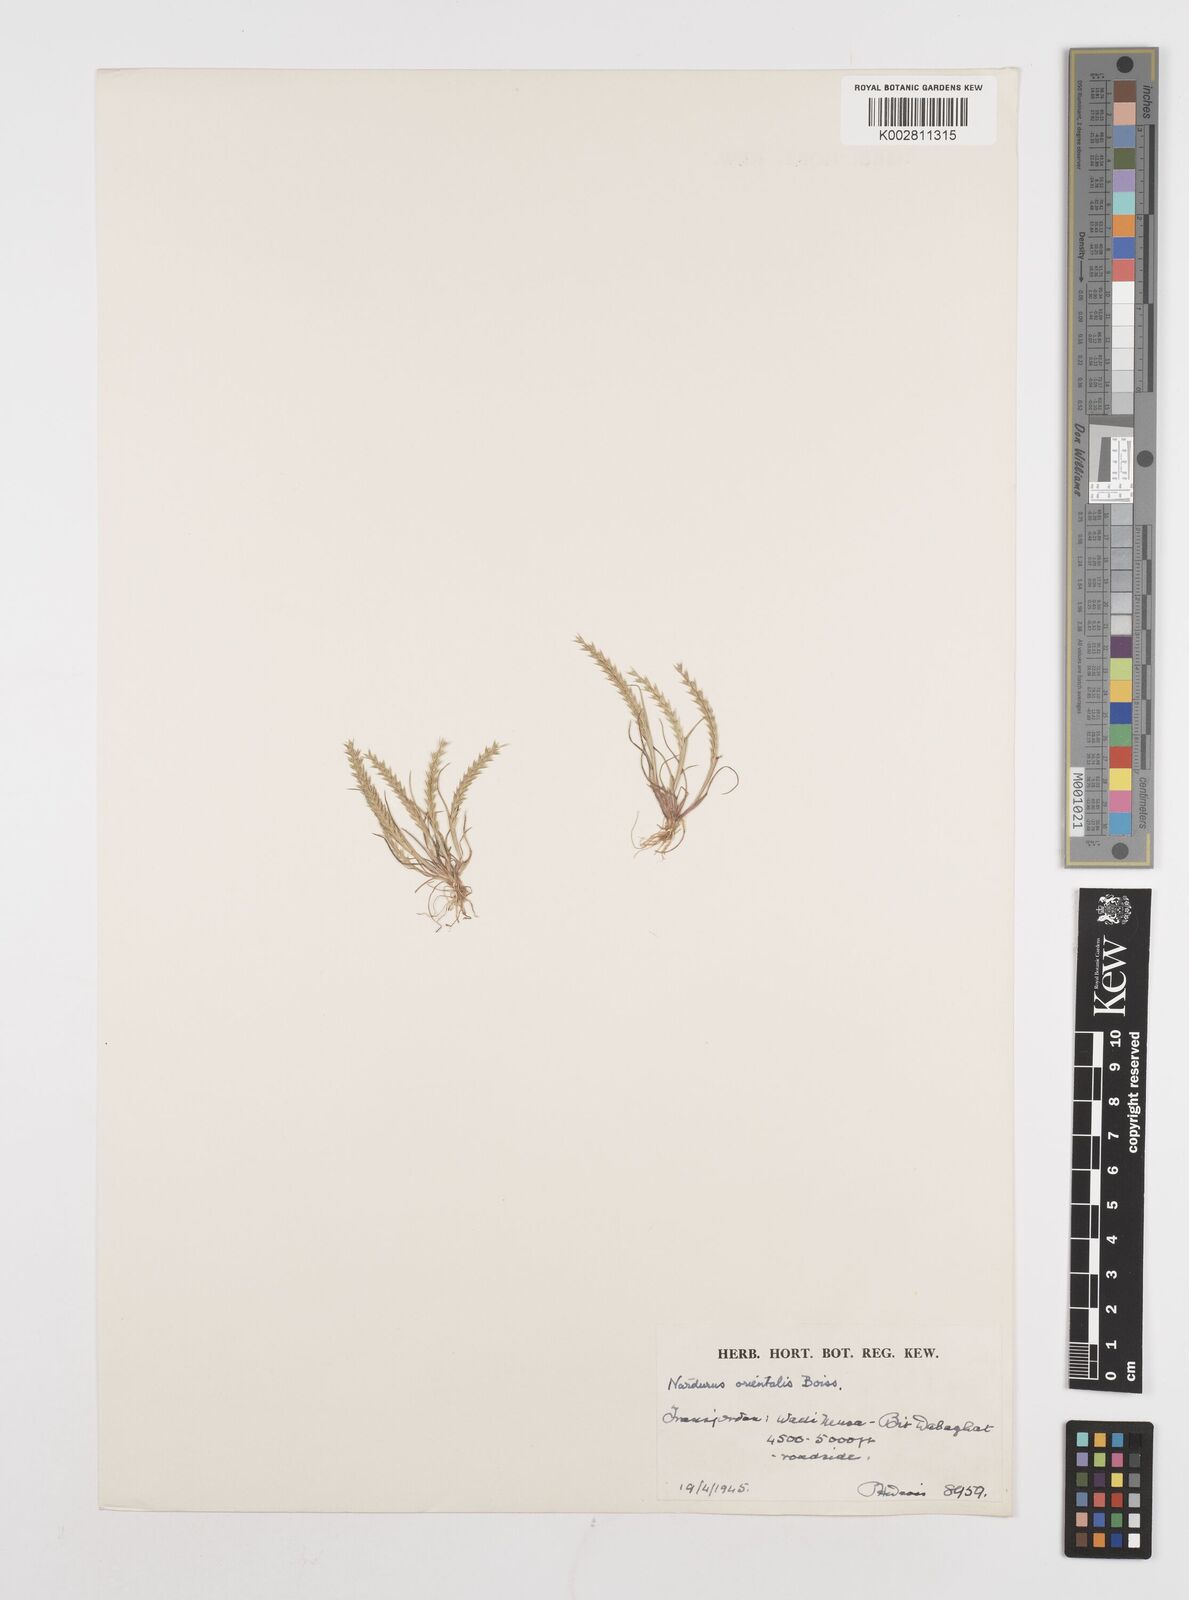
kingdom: Plantae
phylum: Tracheophyta
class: Liliopsida
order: Poales
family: Poaceae
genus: Festuca
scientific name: Festuca orientalis
